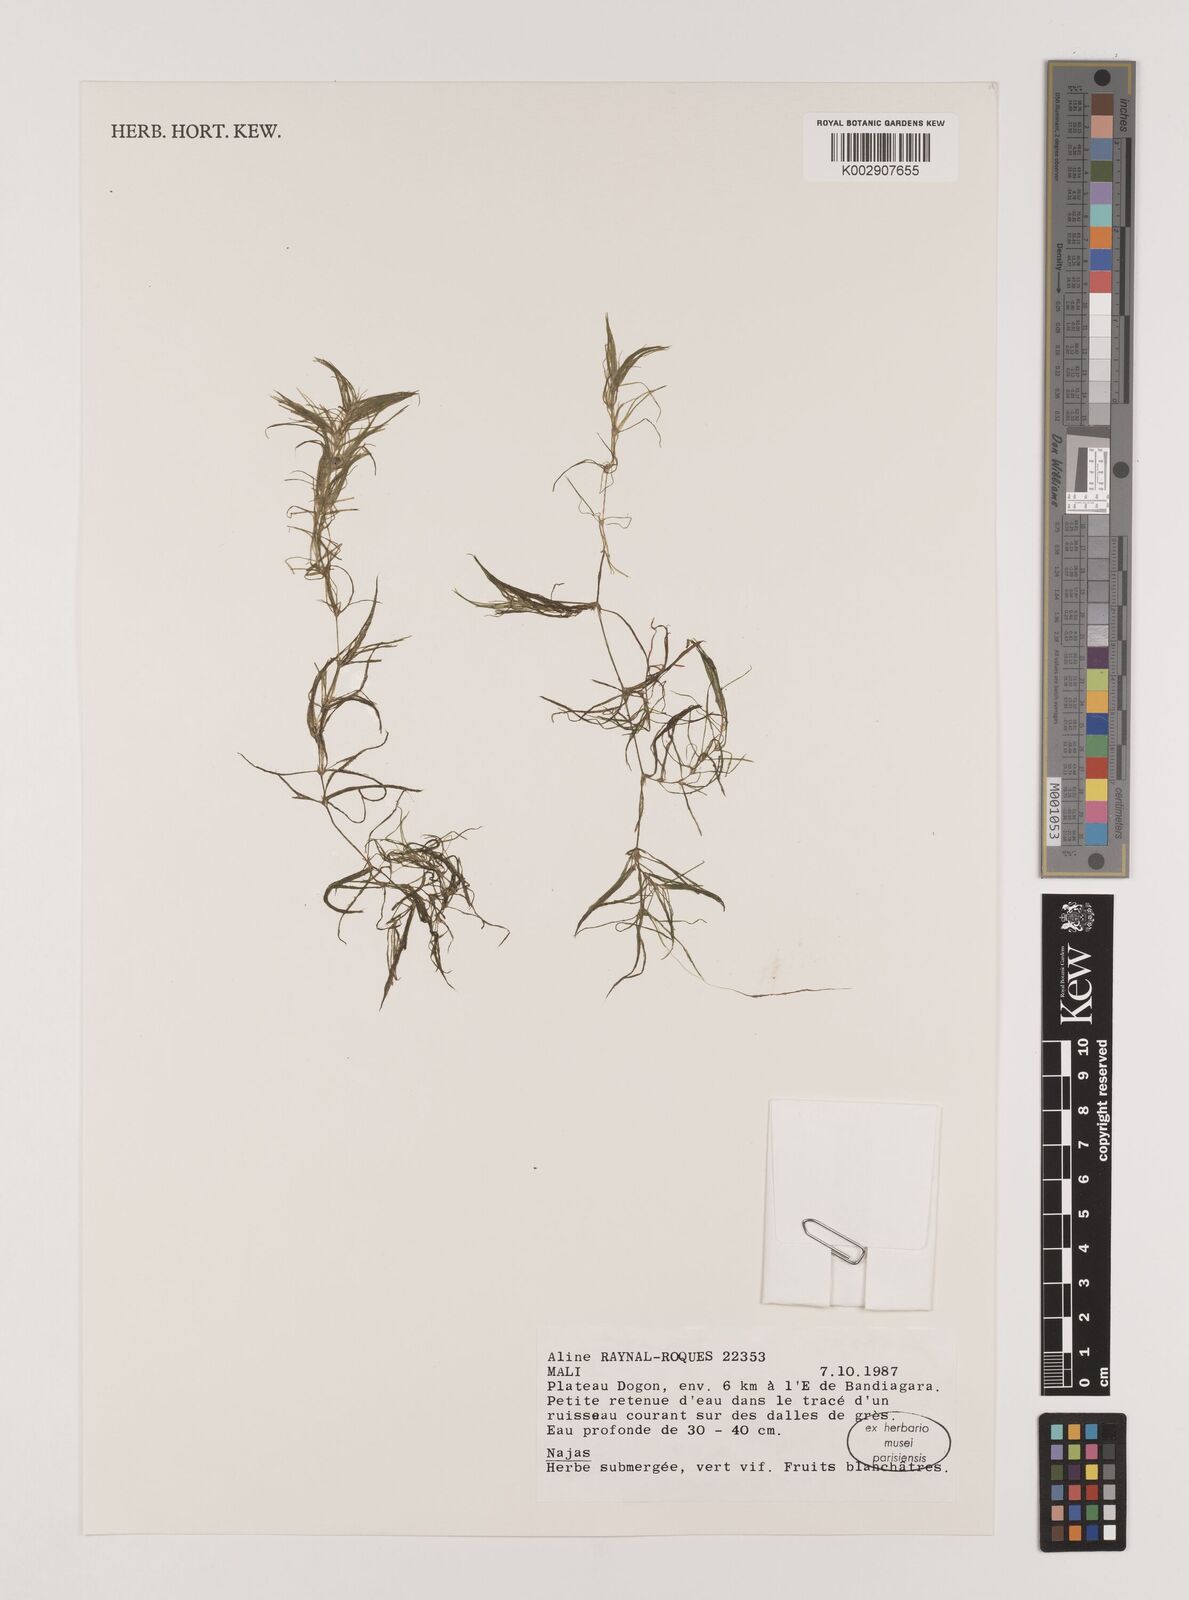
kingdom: Plantae
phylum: Tracheophyta
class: Liliopsida
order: Alismatales
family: Hydrocharitaceae
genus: Najas
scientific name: Najas
